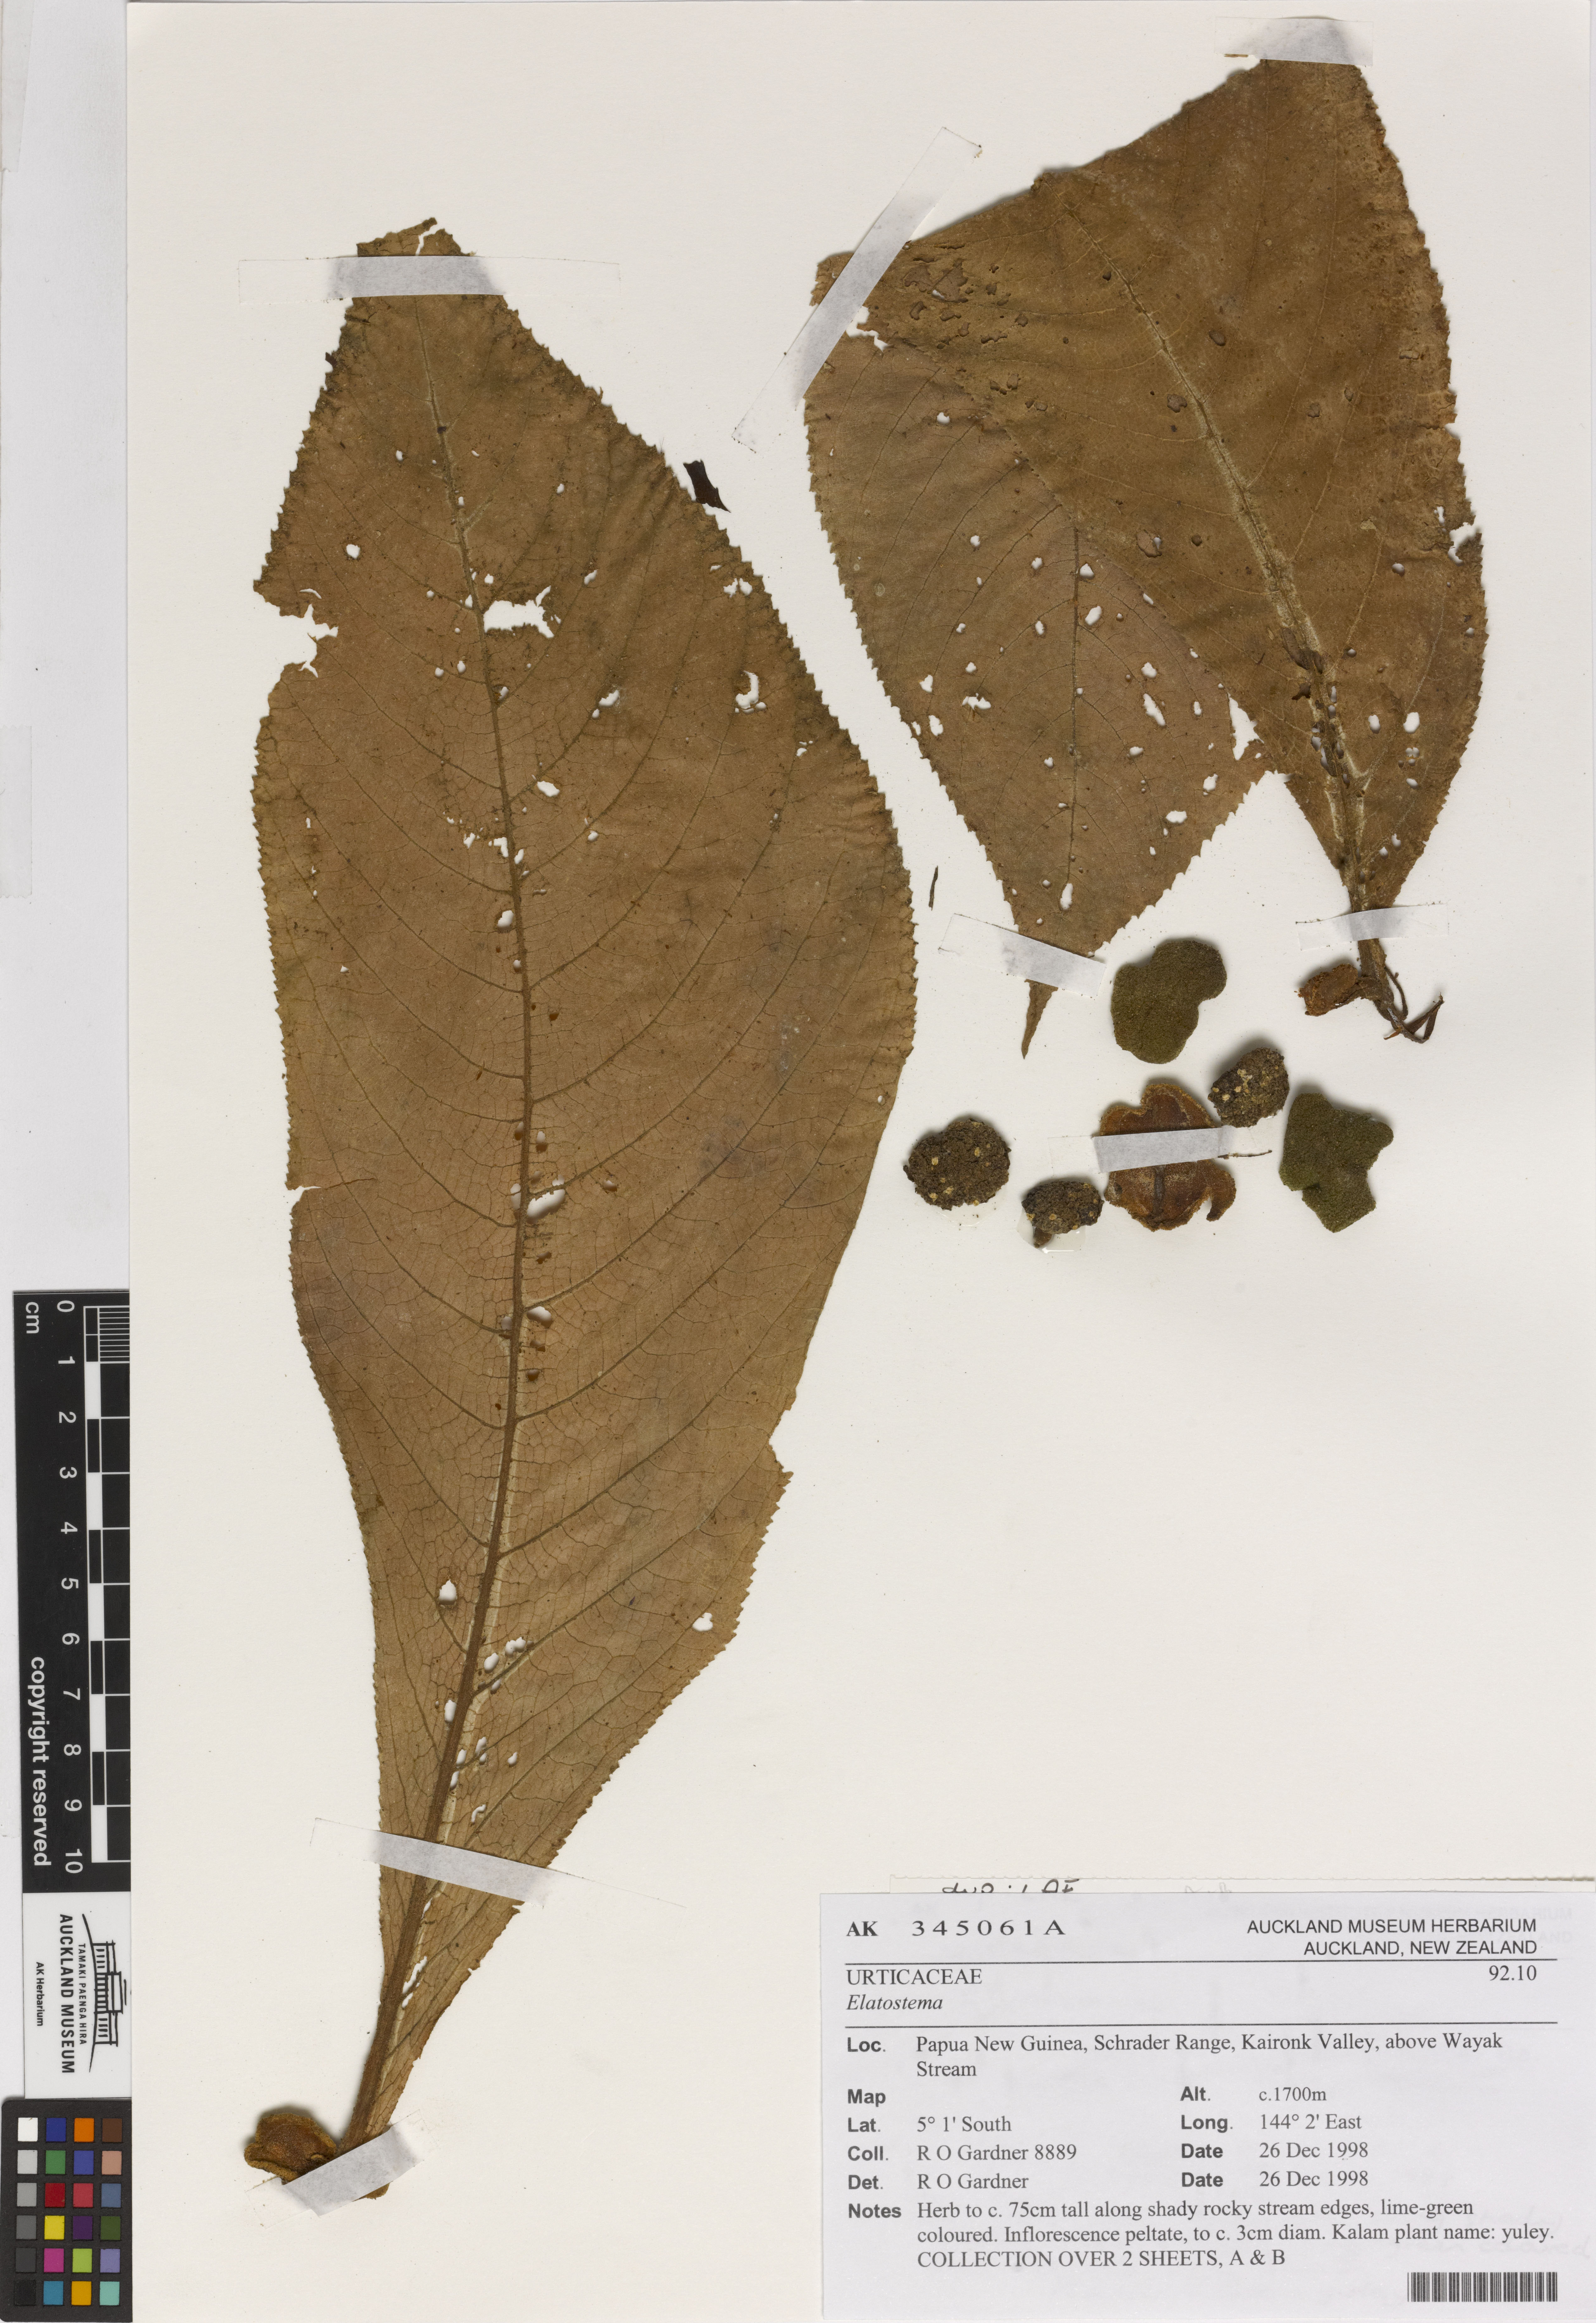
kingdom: Plantae
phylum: Tracheophyta
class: Magnoliopsida
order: Rosales
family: Urticaceae
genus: Elatostema
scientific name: Elatostema
